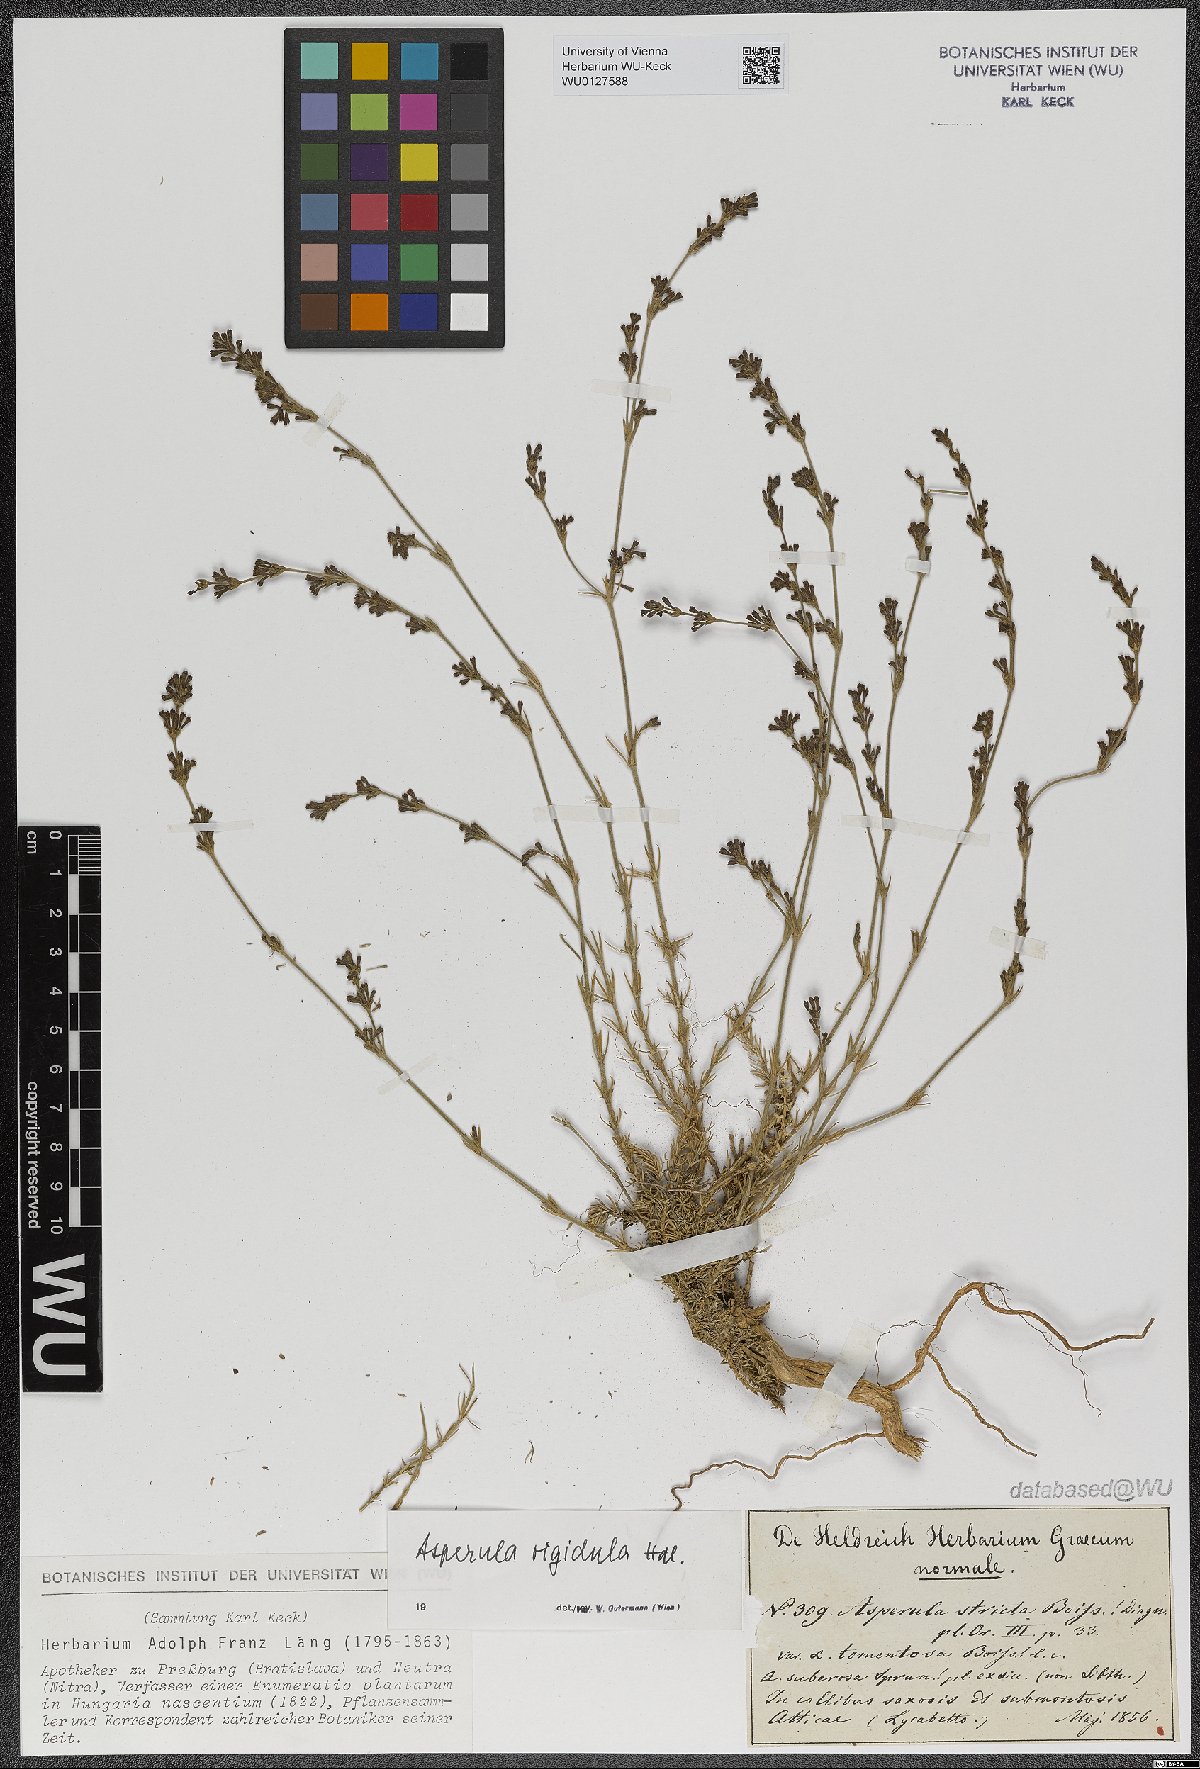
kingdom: Plantae
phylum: Tracheophyta
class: Magnoliopsida
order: Gentianales
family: Rubiaceae
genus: Cynanchica
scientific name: Cynanchica rigidula
